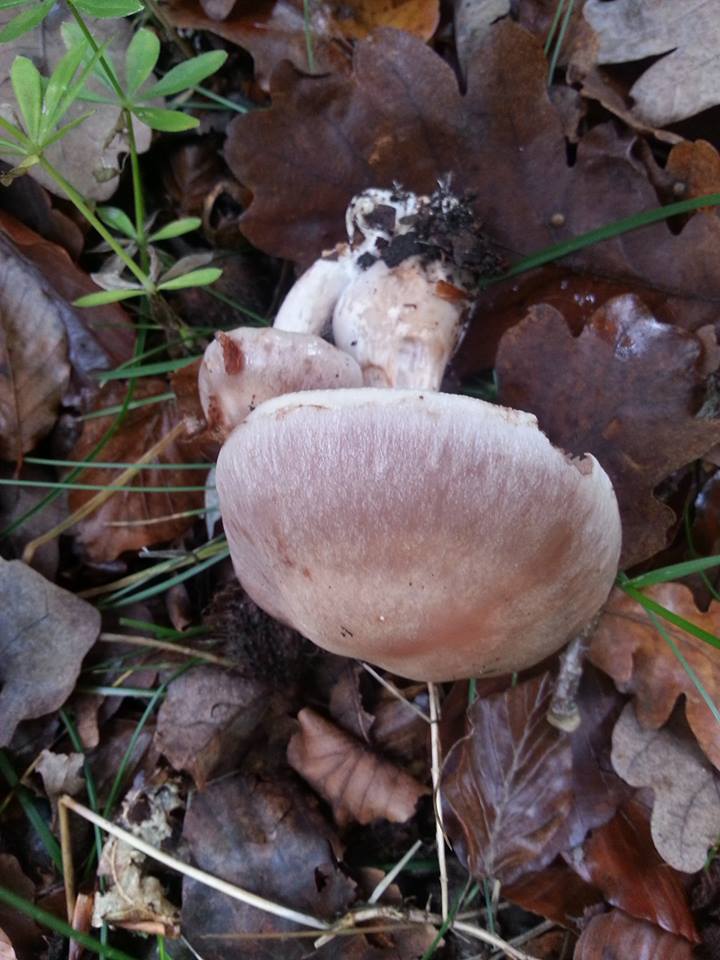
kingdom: Fungi
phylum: Basidiomycota
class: Agaricomycetes
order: Agaricales
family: Cortinariaceae
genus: Cortinarius
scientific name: Cortinarius
